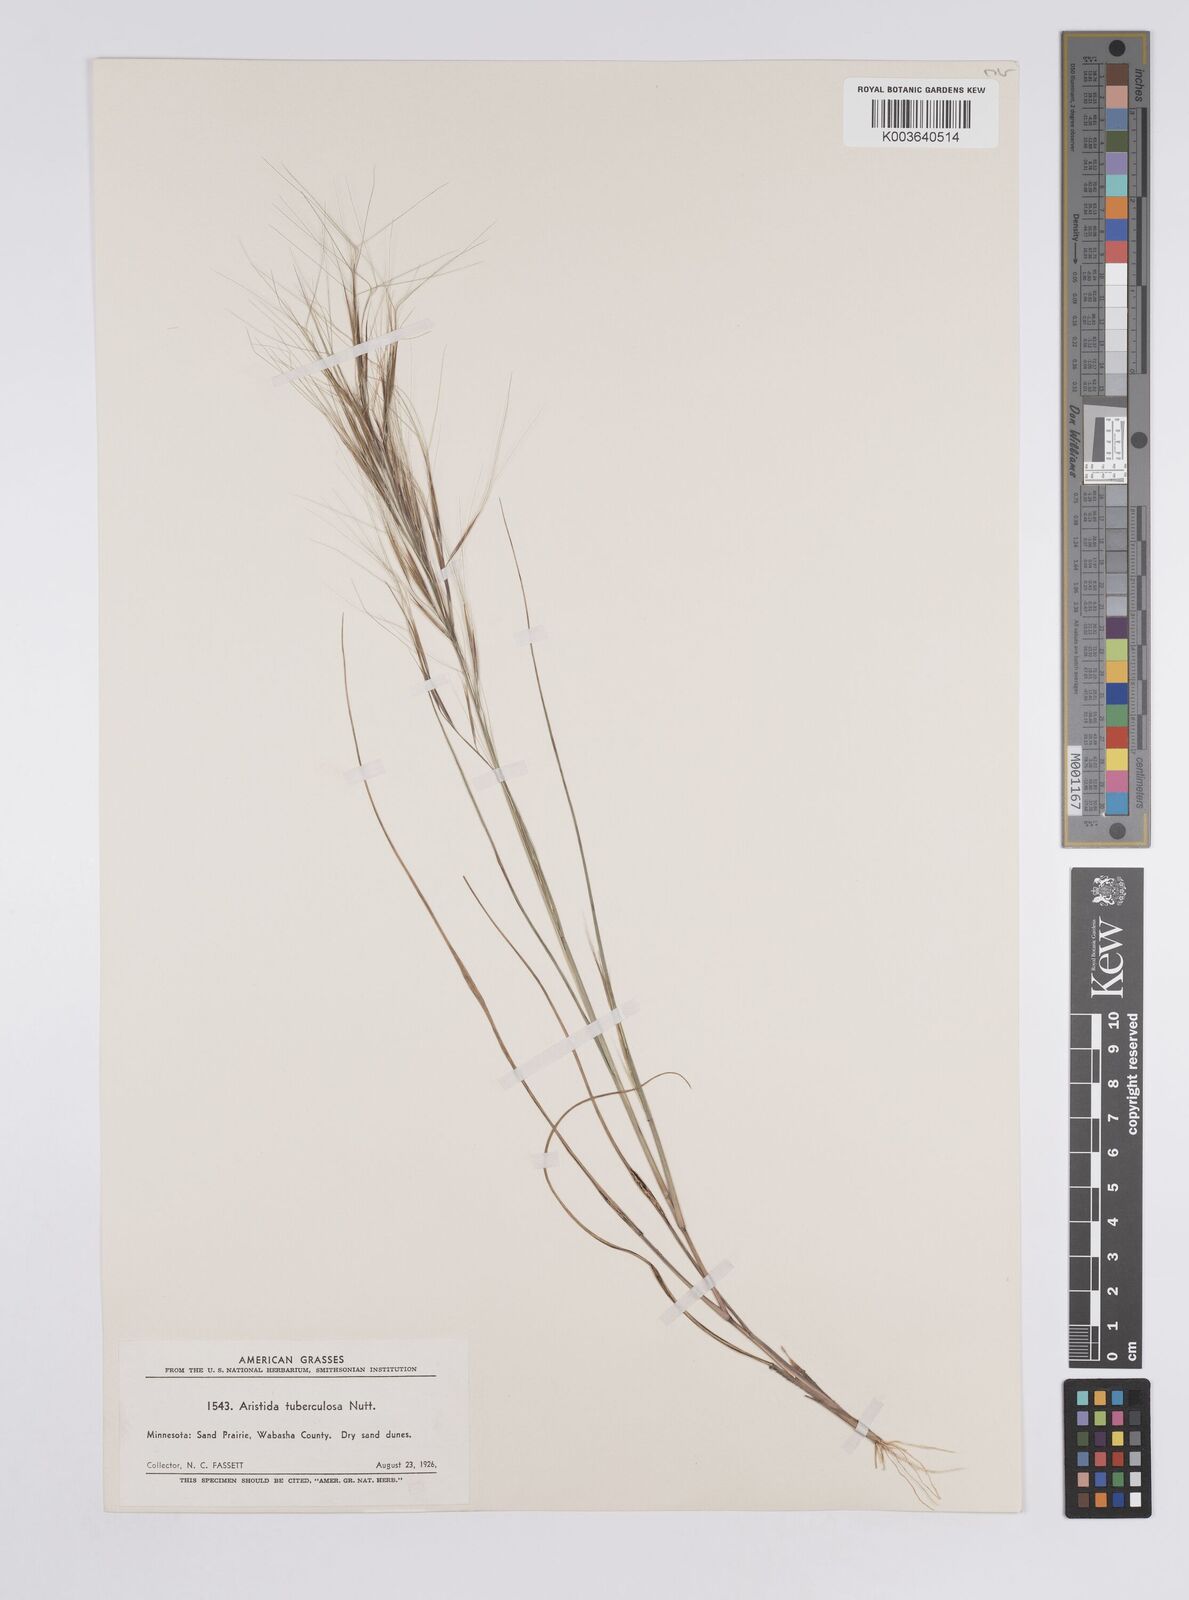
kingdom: Plantae
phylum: Tracheophyta
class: Liliopsida
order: Poales
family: Poaceae
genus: Aristida
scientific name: Aristida tuberculosa
